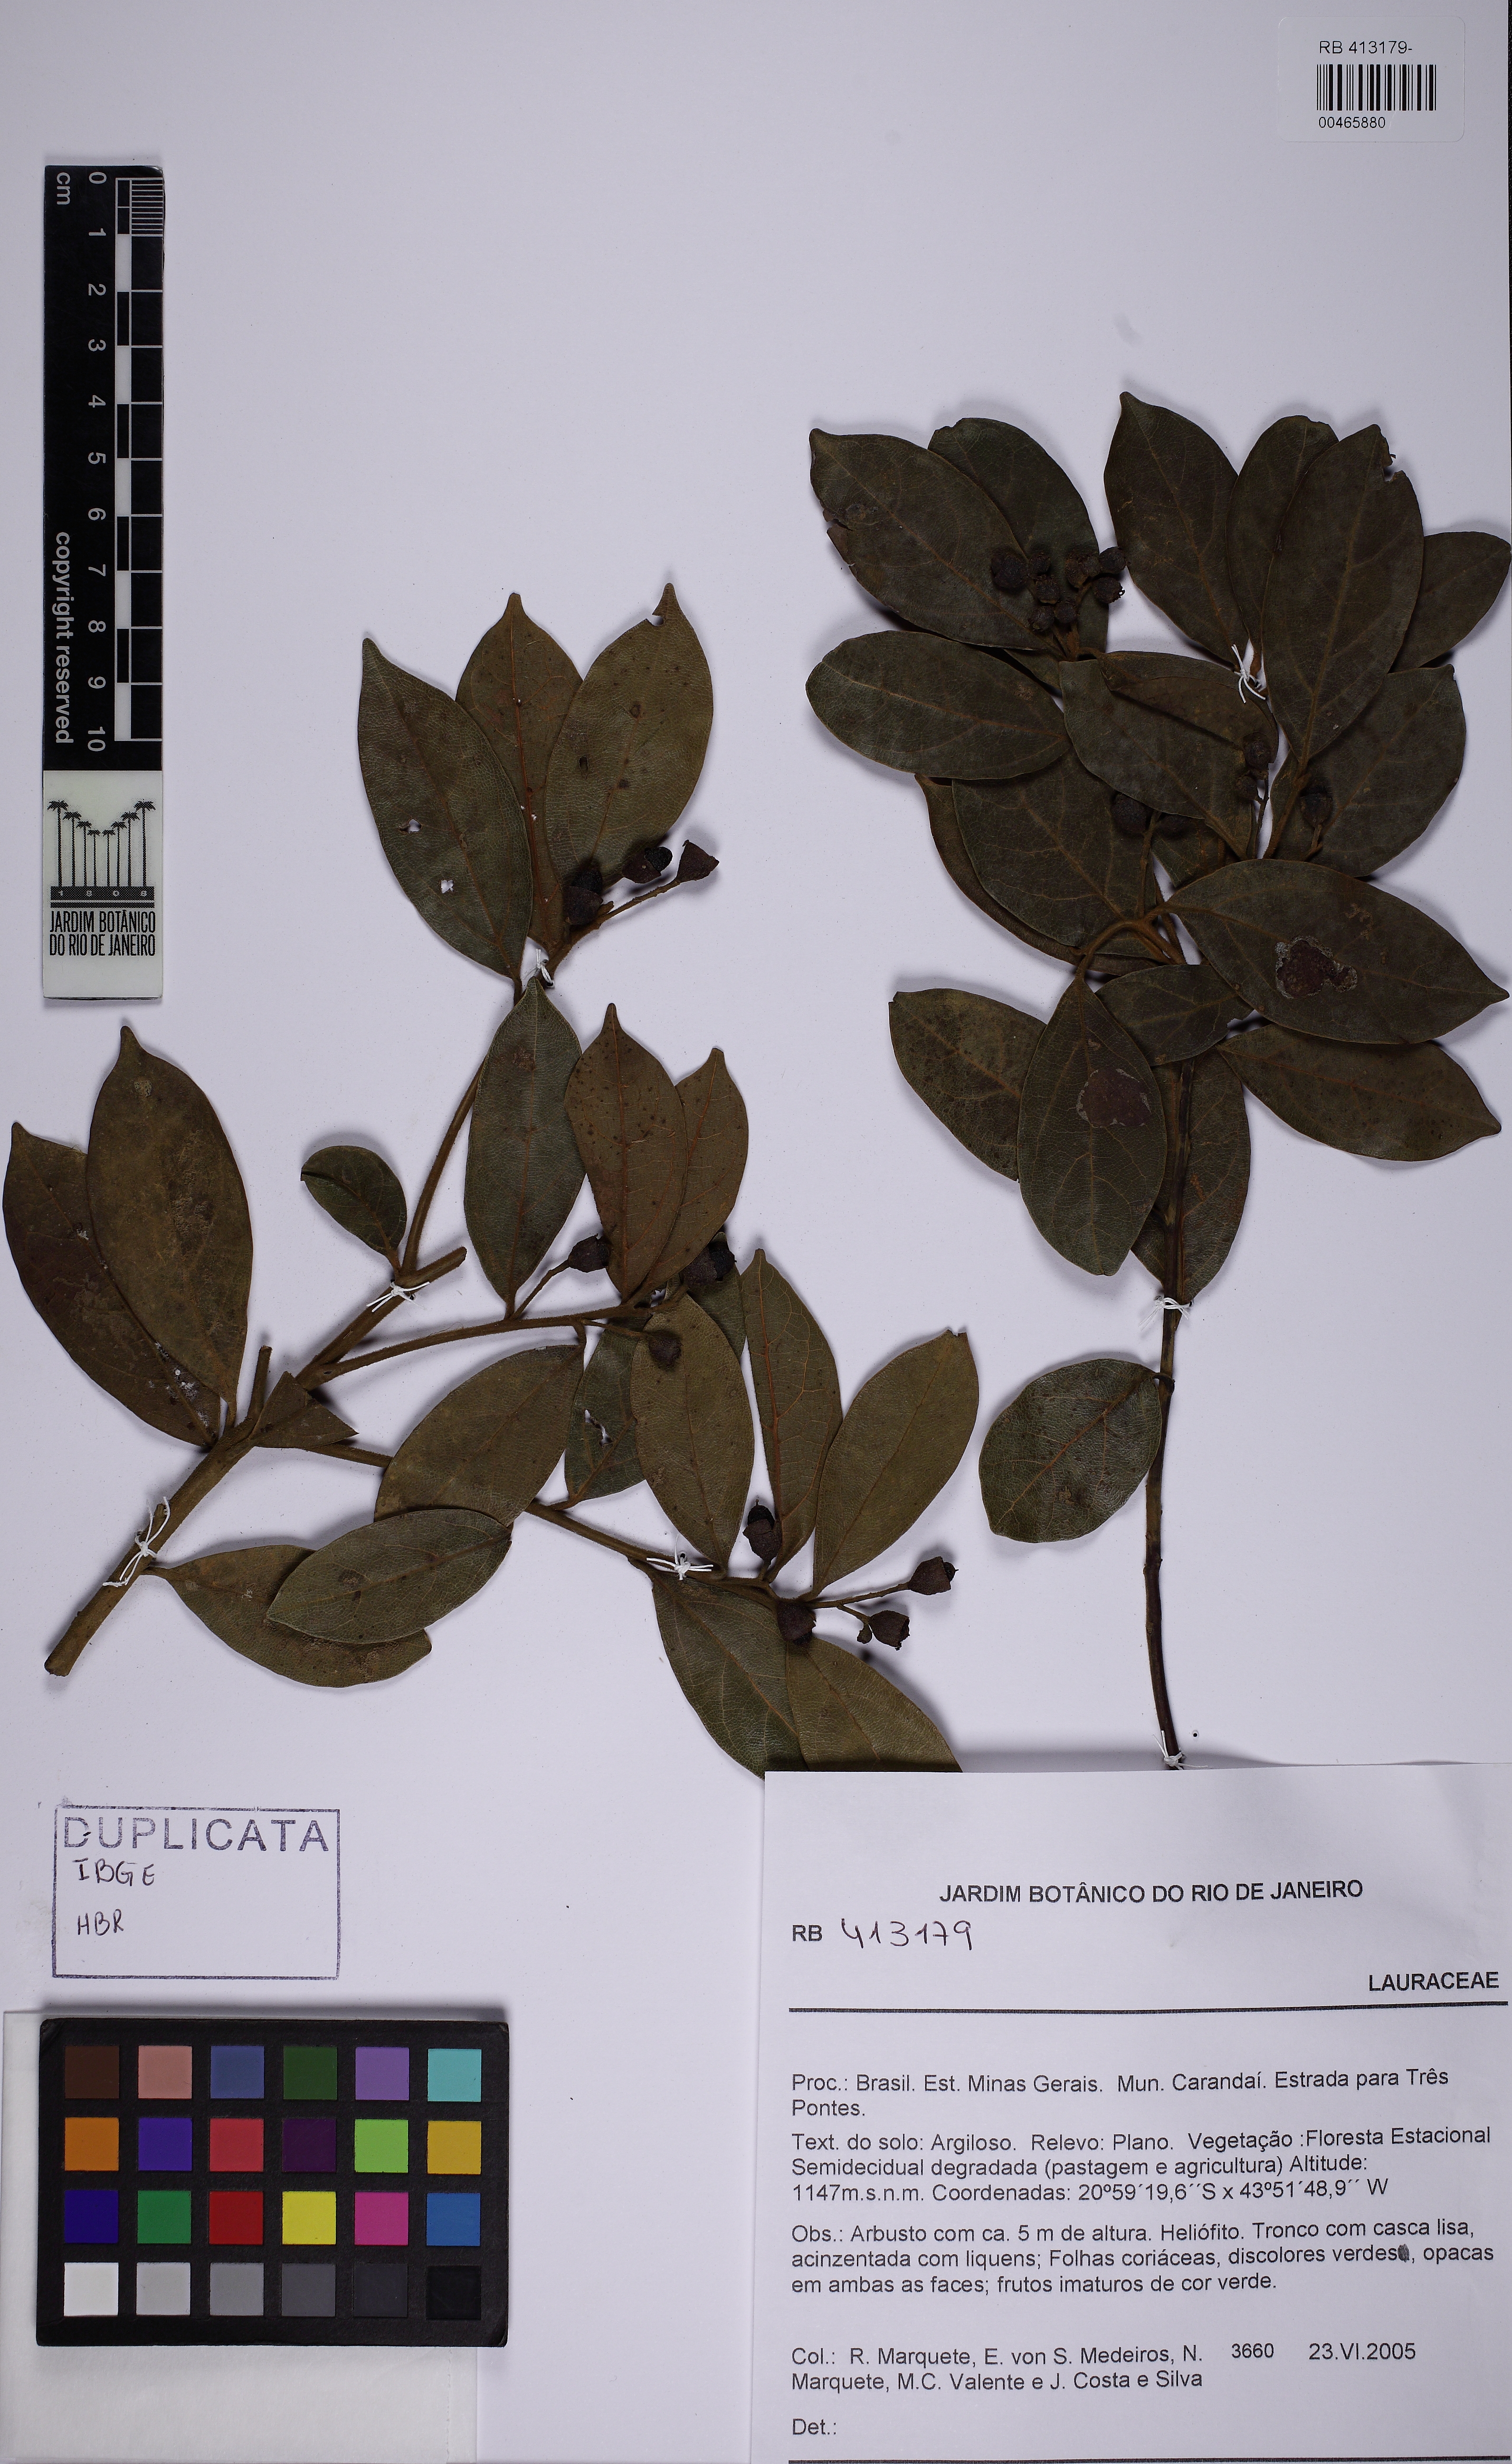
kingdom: Plantae
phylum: Tracheophyta
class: Magnoliopsida
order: Laurales
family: Lauraceae
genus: Mespilodaphne
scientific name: Mespilodaphne pulchella
